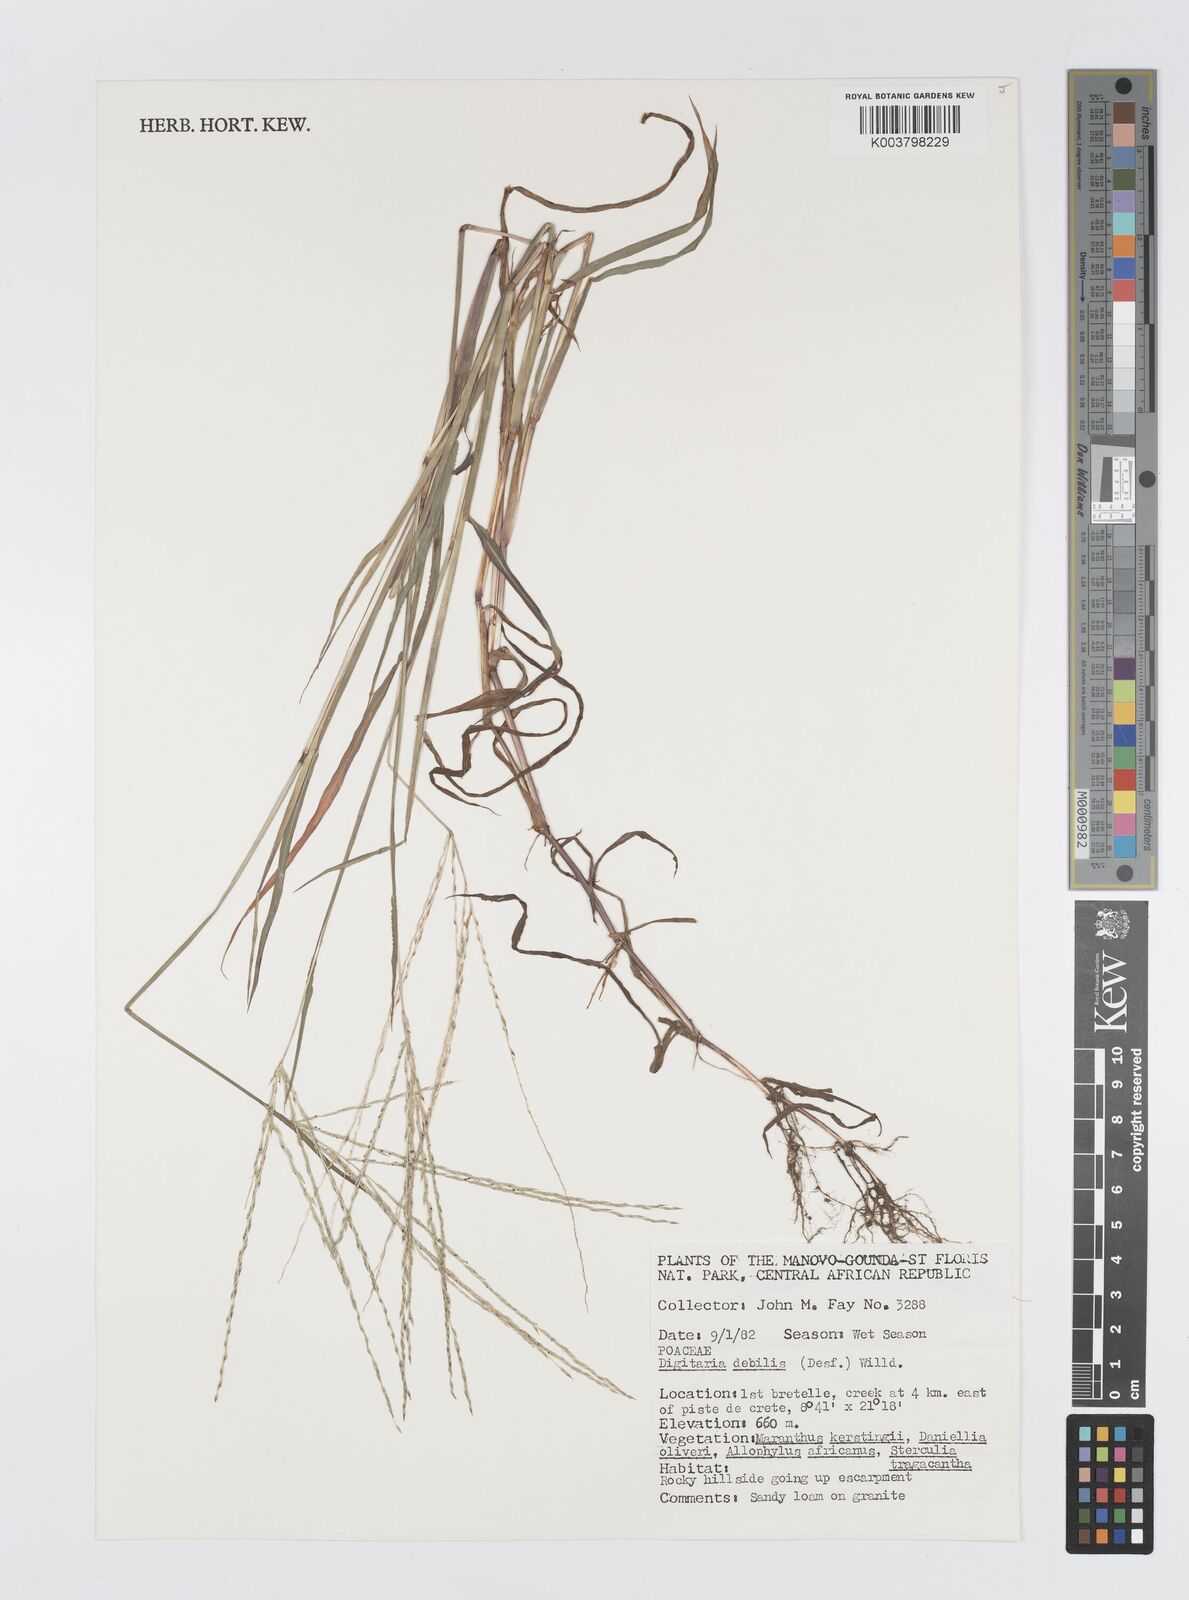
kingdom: Plantae
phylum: Tracheophyta
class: Liliopsida
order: Poales
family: Poaceae
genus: Digitaria
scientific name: Digitaria debilis
